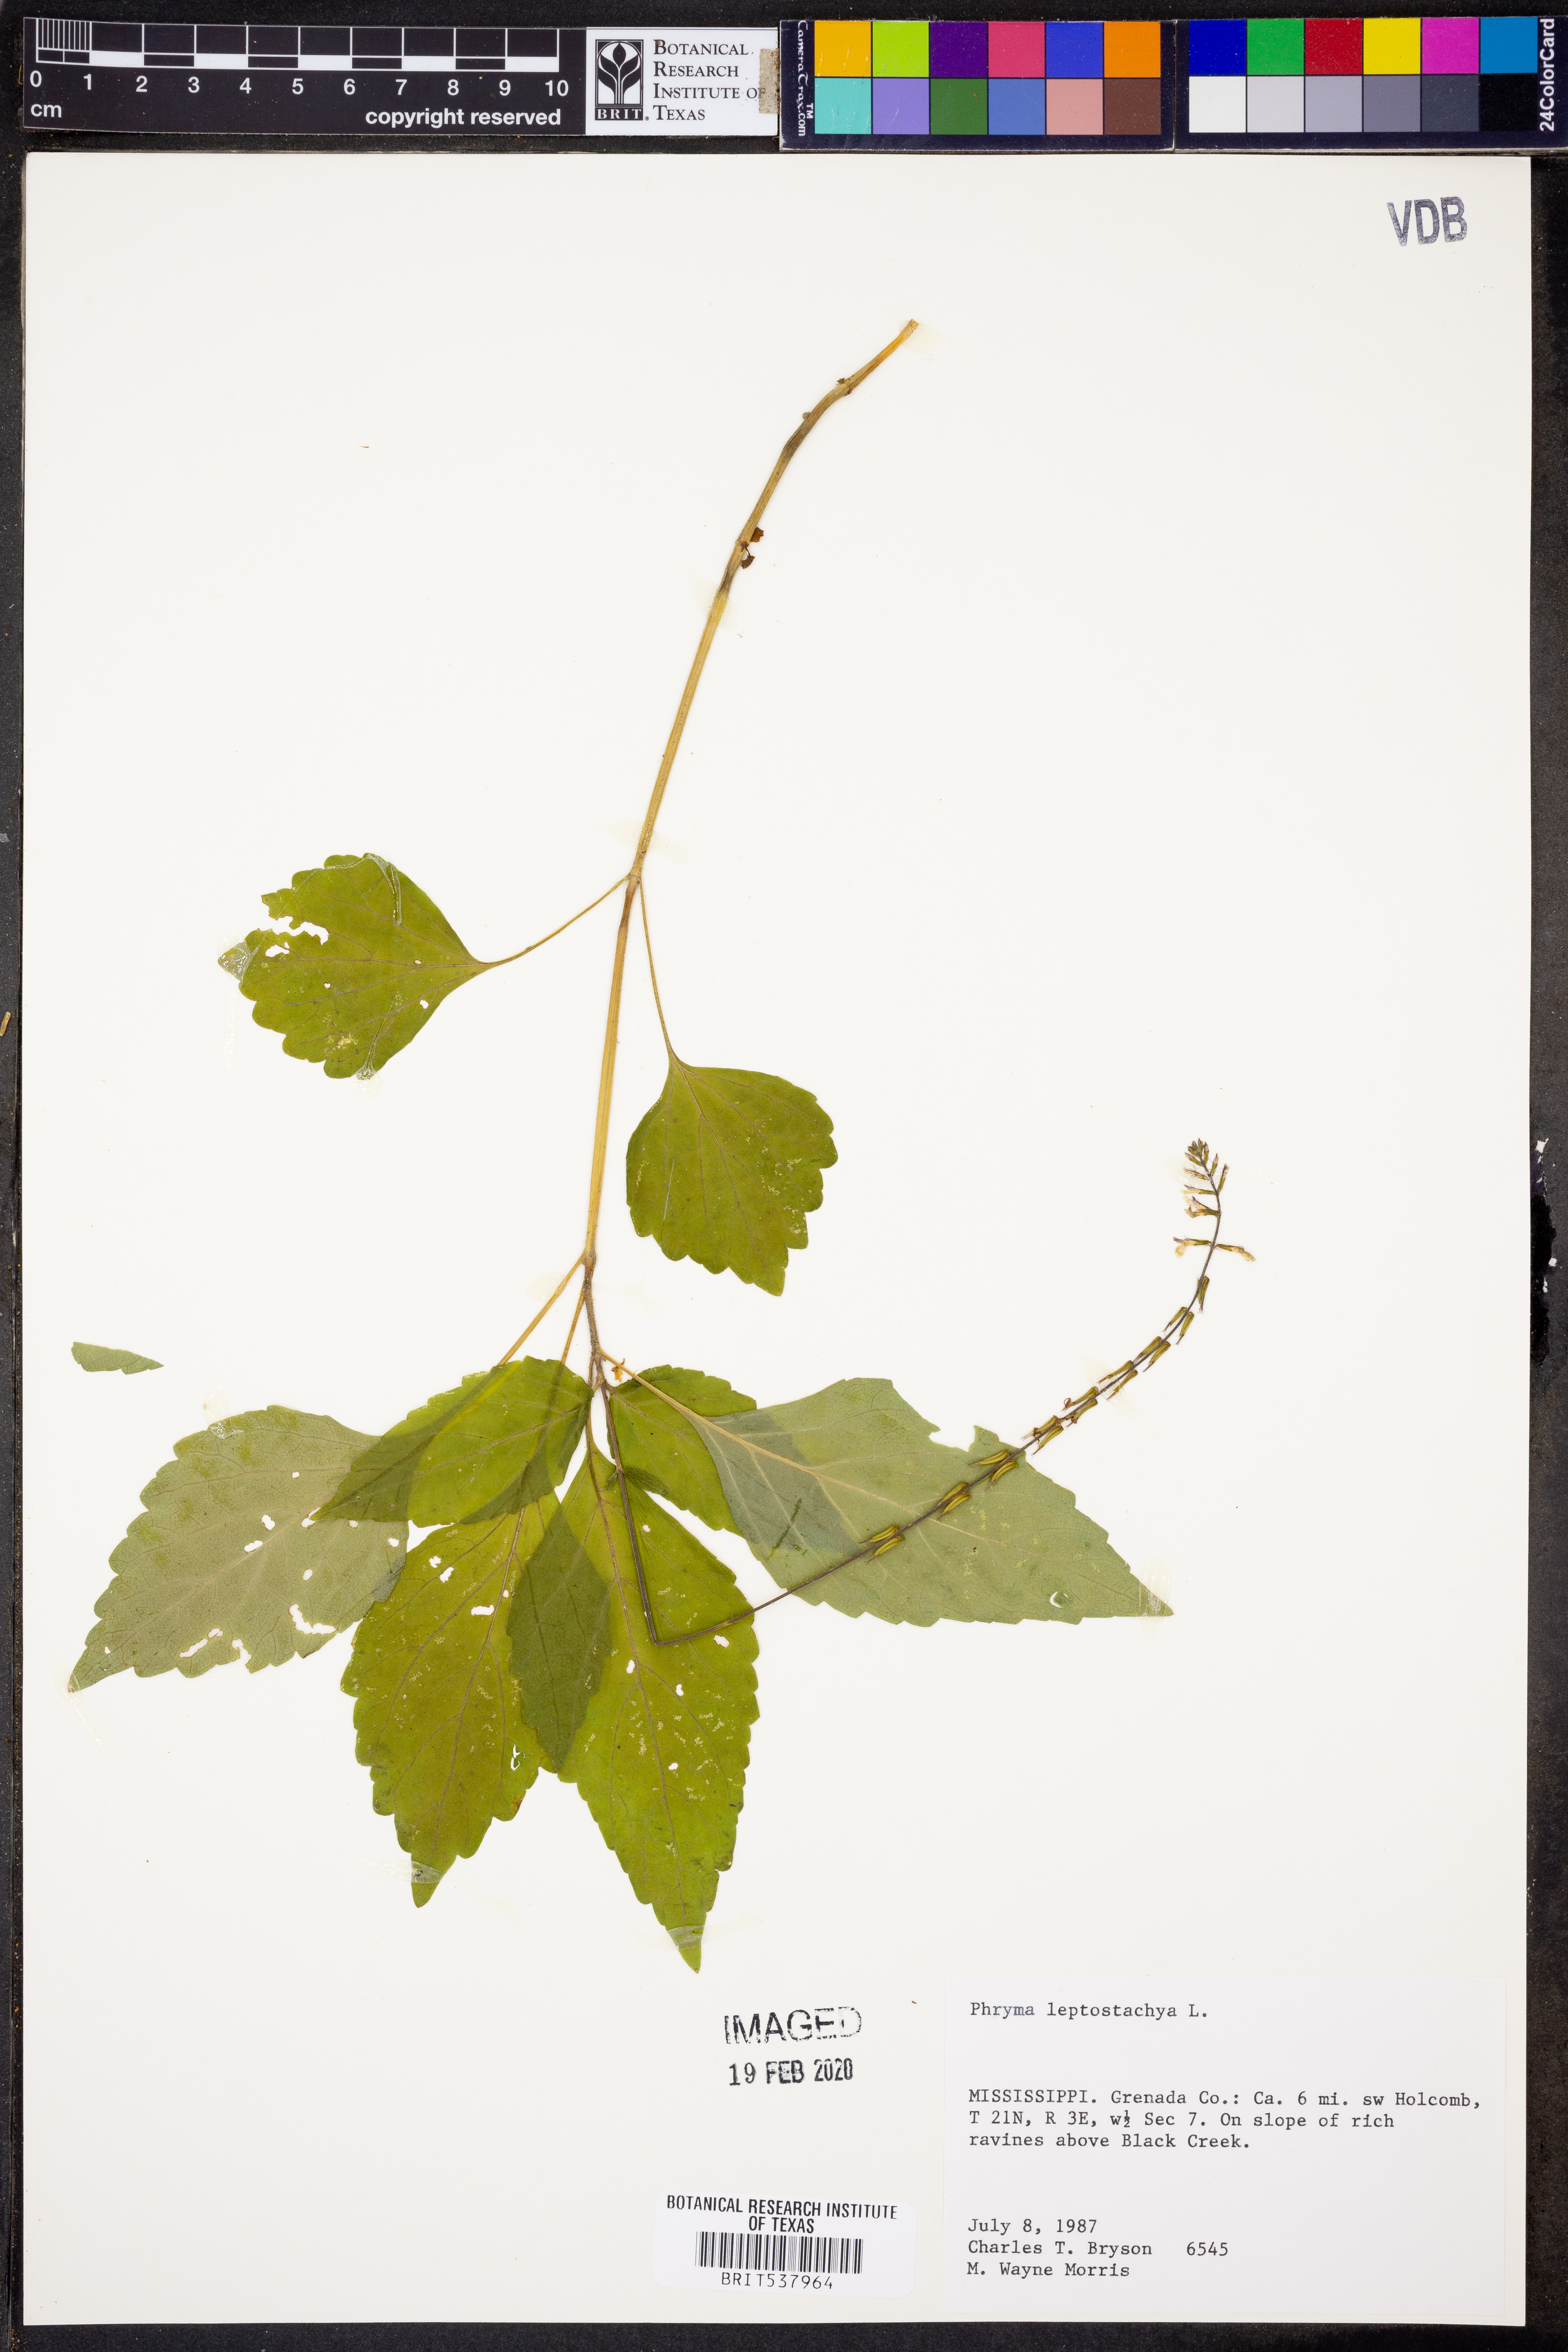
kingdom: Plantae
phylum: Tracheophyta
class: Magnoliopsida
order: Lamiales
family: Phrymaceae
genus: Phryma
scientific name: Phryma leptostachya
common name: American lopseed
